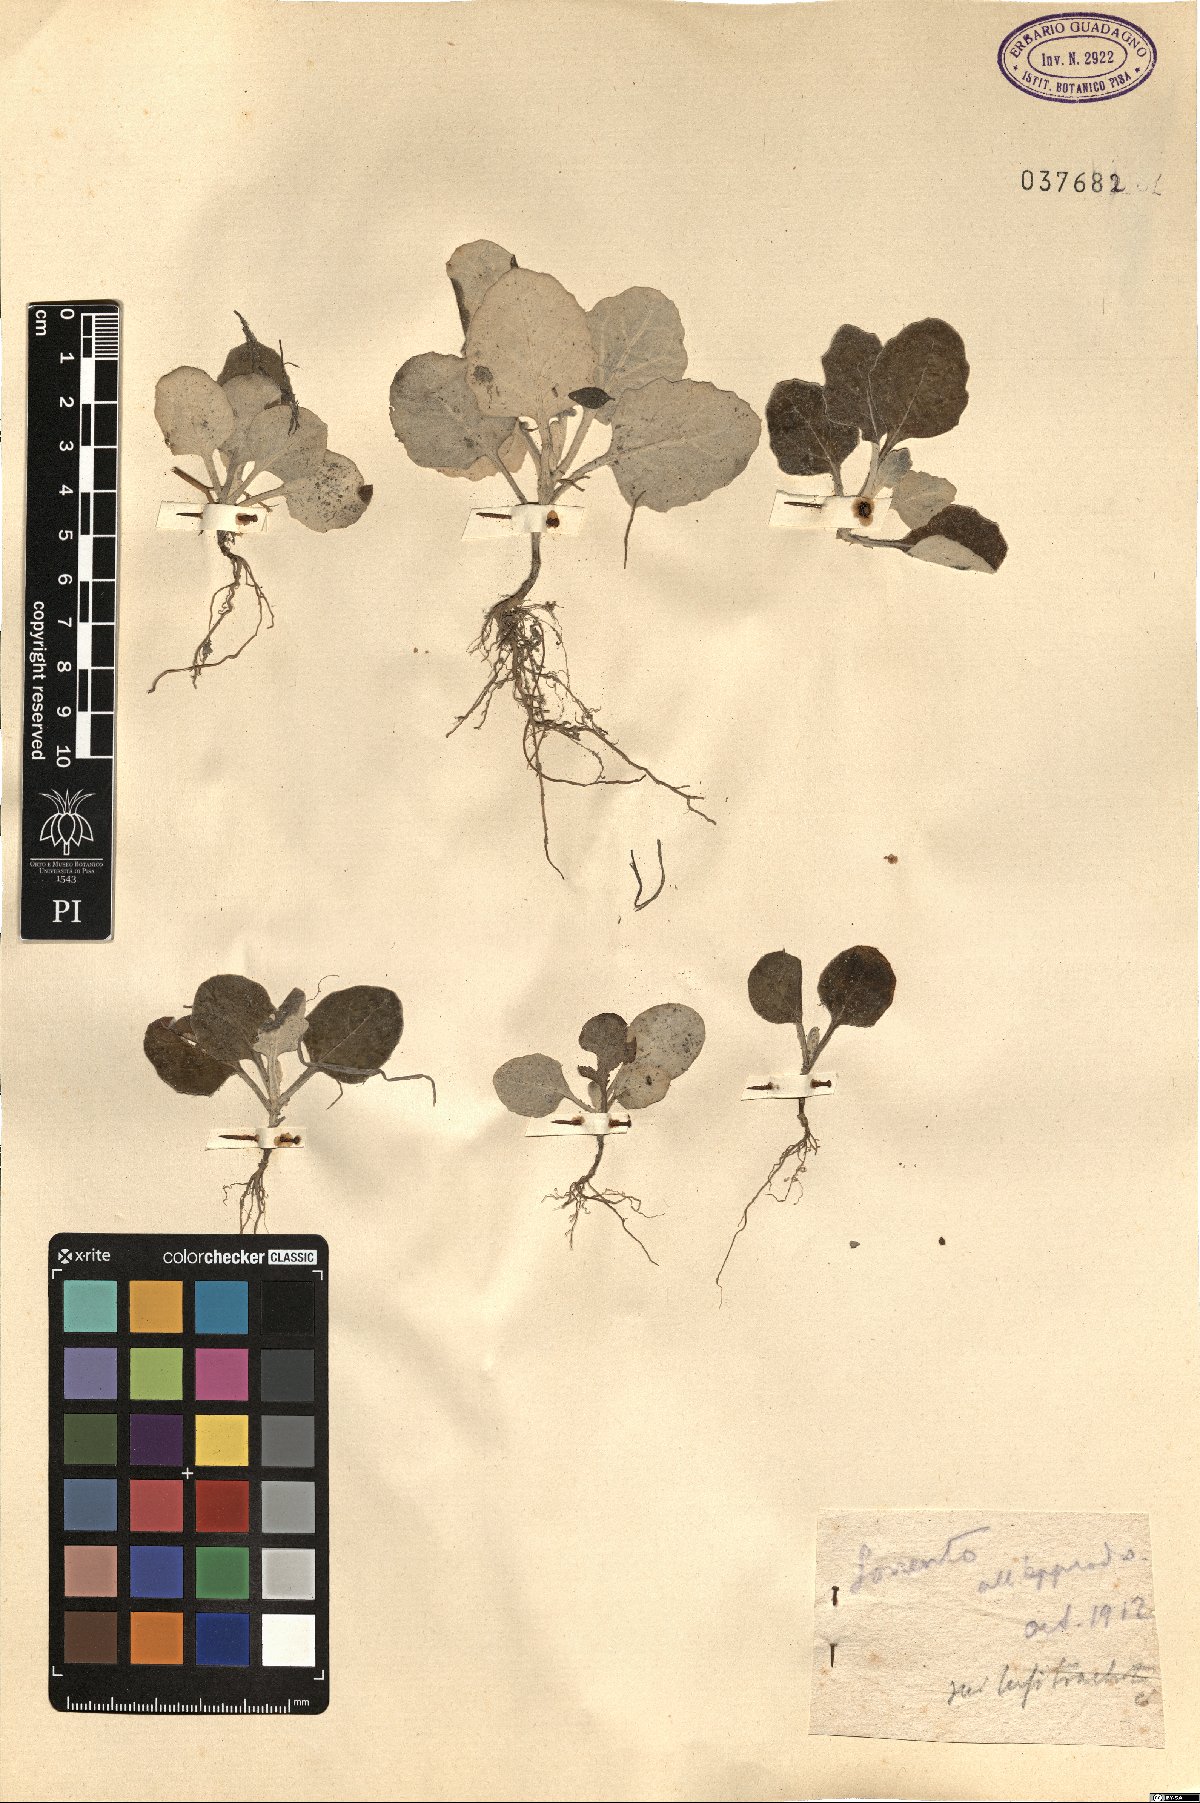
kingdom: Plantae
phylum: Tracheophyta
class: Magnoliopsida
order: Asterales
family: Asteraceae
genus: Cineraria
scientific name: Cineraria
